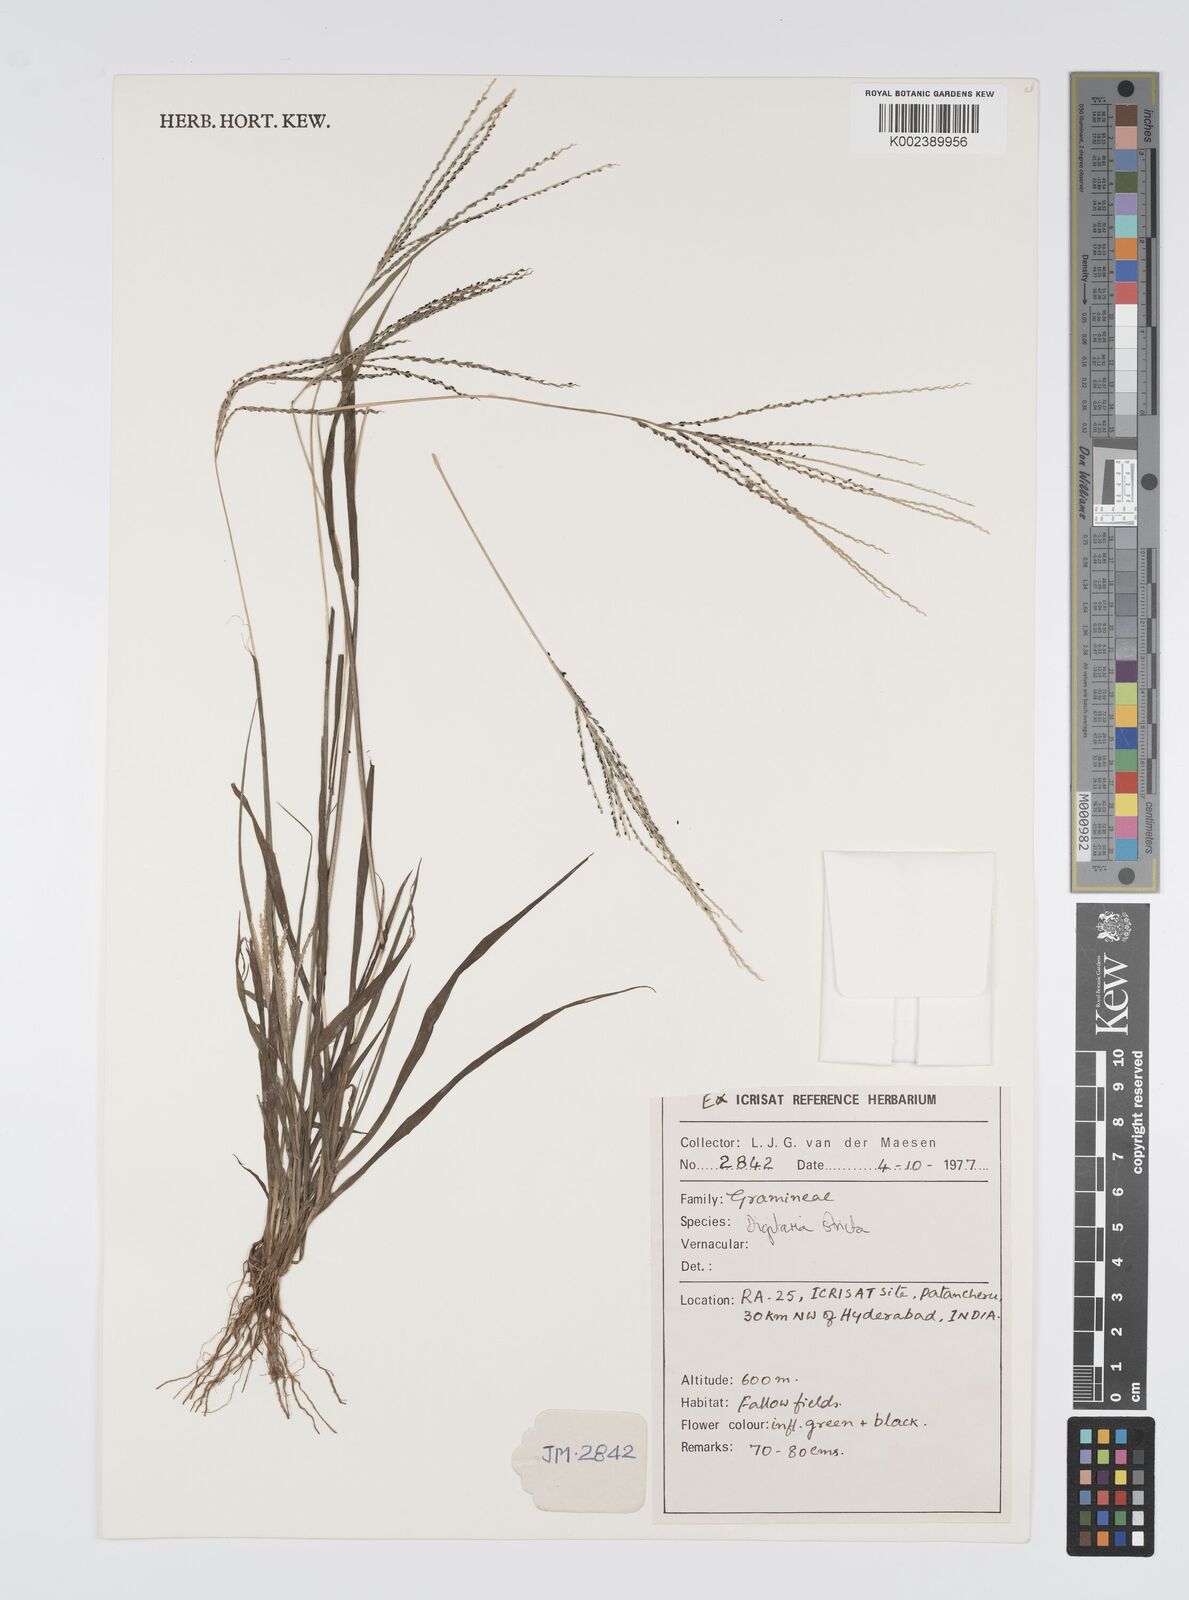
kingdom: Plantae
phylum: Tracheophyta
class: Liliopsida
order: Poales
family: Poaceae
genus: Digitaria
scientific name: Digitaria stricta
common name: Crabgrass
